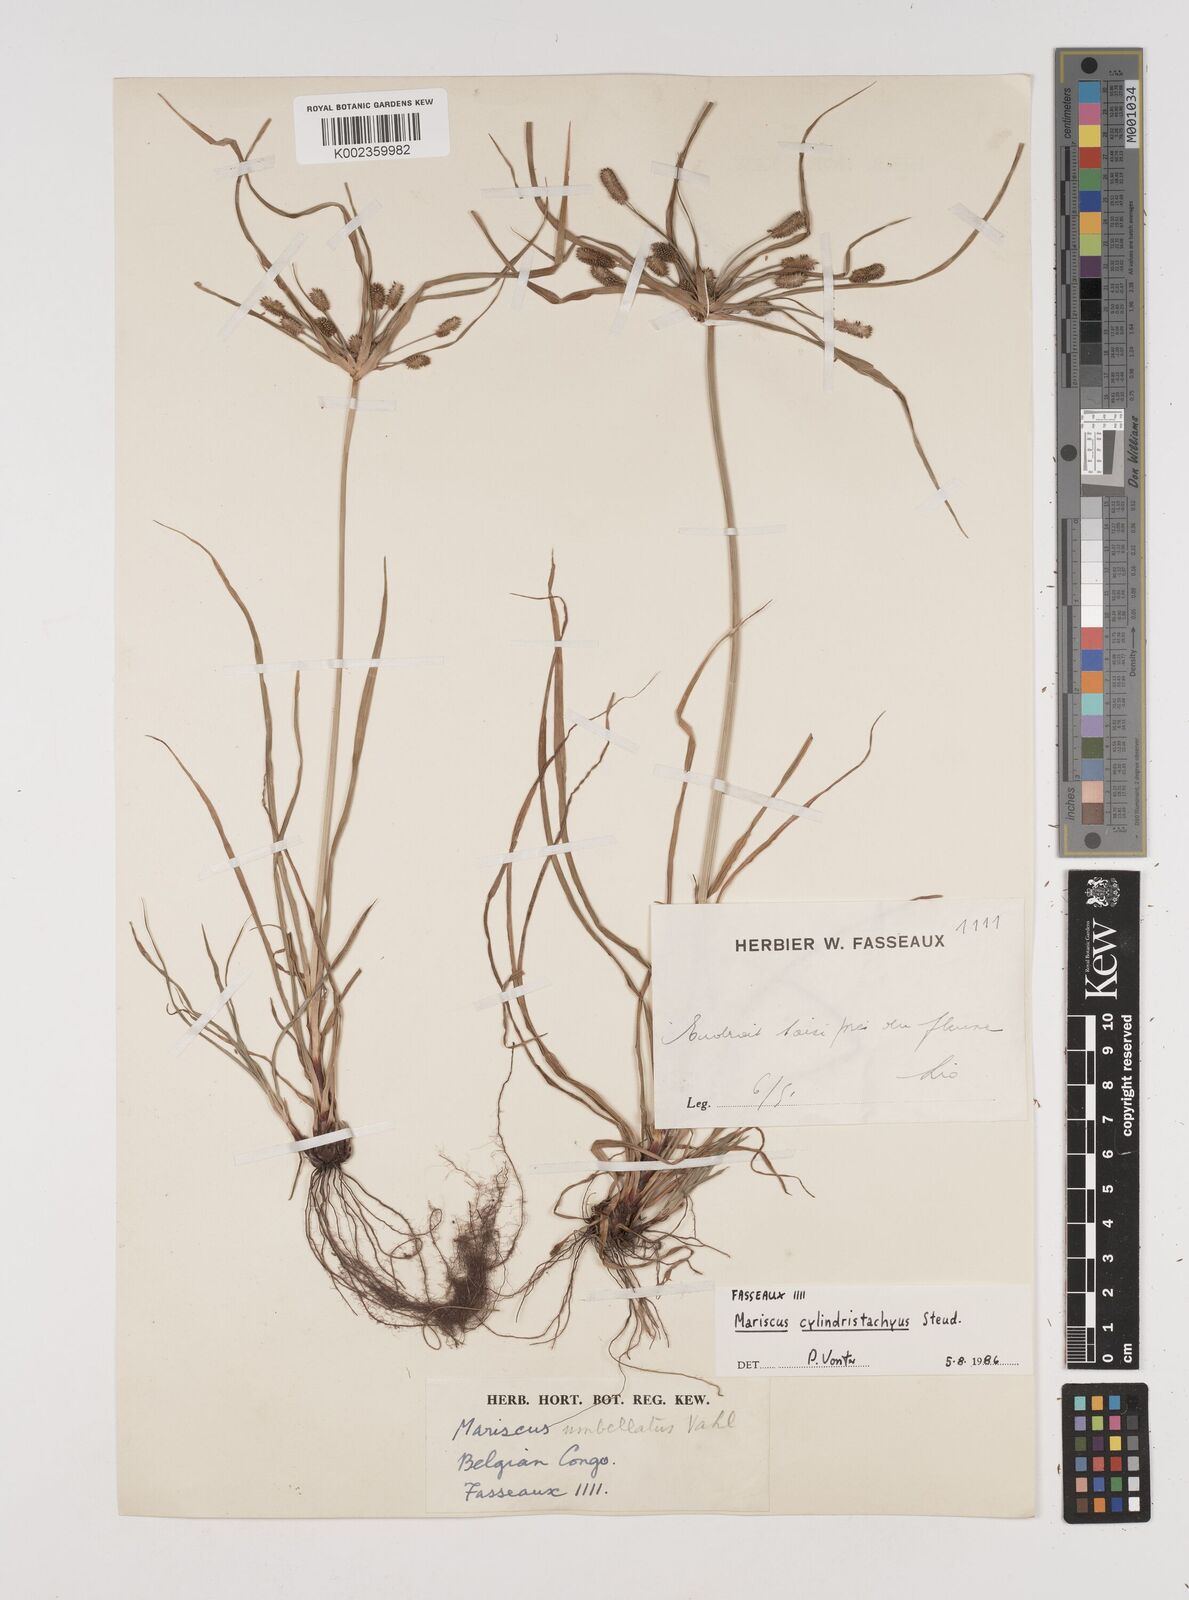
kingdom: Plantae
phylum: Tracheophyta
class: Liliopsida
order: Poales
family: Cyperaceae
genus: Cyperus
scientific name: Cyperus cyperoides
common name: Pacific island flat sedge
